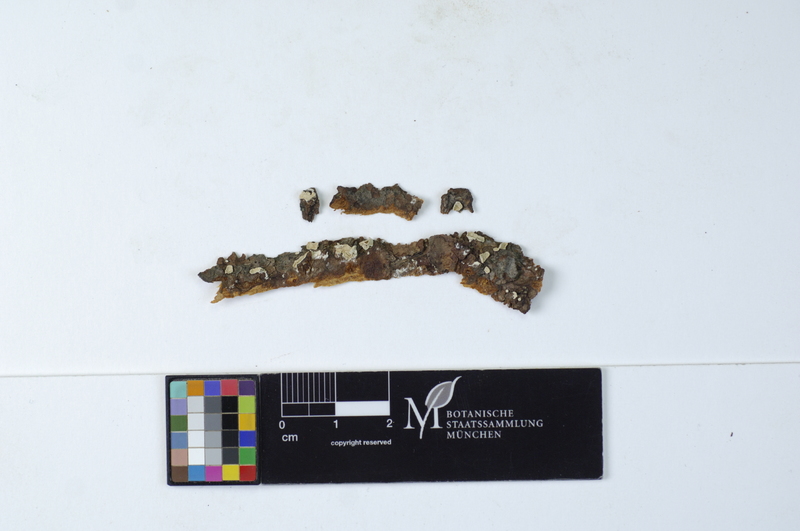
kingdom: Fungi
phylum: Basidiomycota
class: Agaricomycetes
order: Russulales
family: Stereaceae
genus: Aleurocystidiellum
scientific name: Aleurocystidiellum subcruentatum
